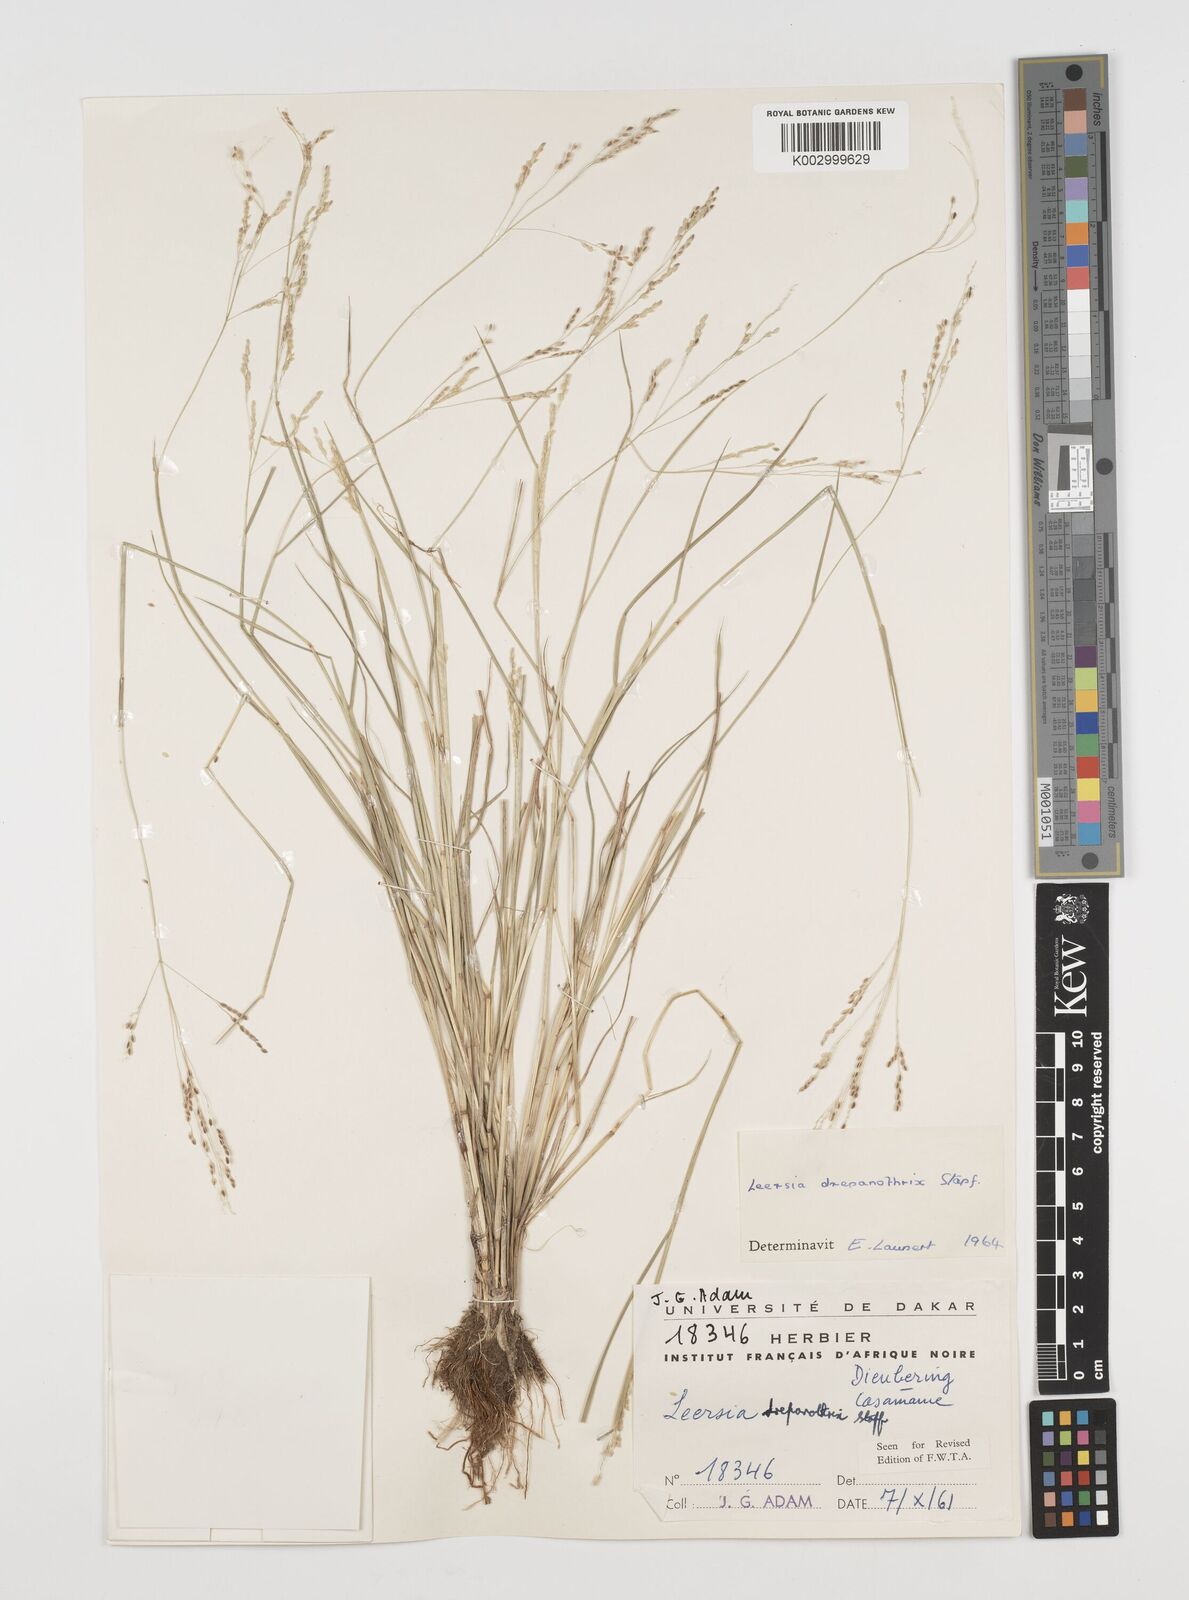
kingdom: Plantae
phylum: Tracheophyta
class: Liliopsida
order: Poales
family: Poaceae
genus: Leersia
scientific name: Leersia drepanothrix
